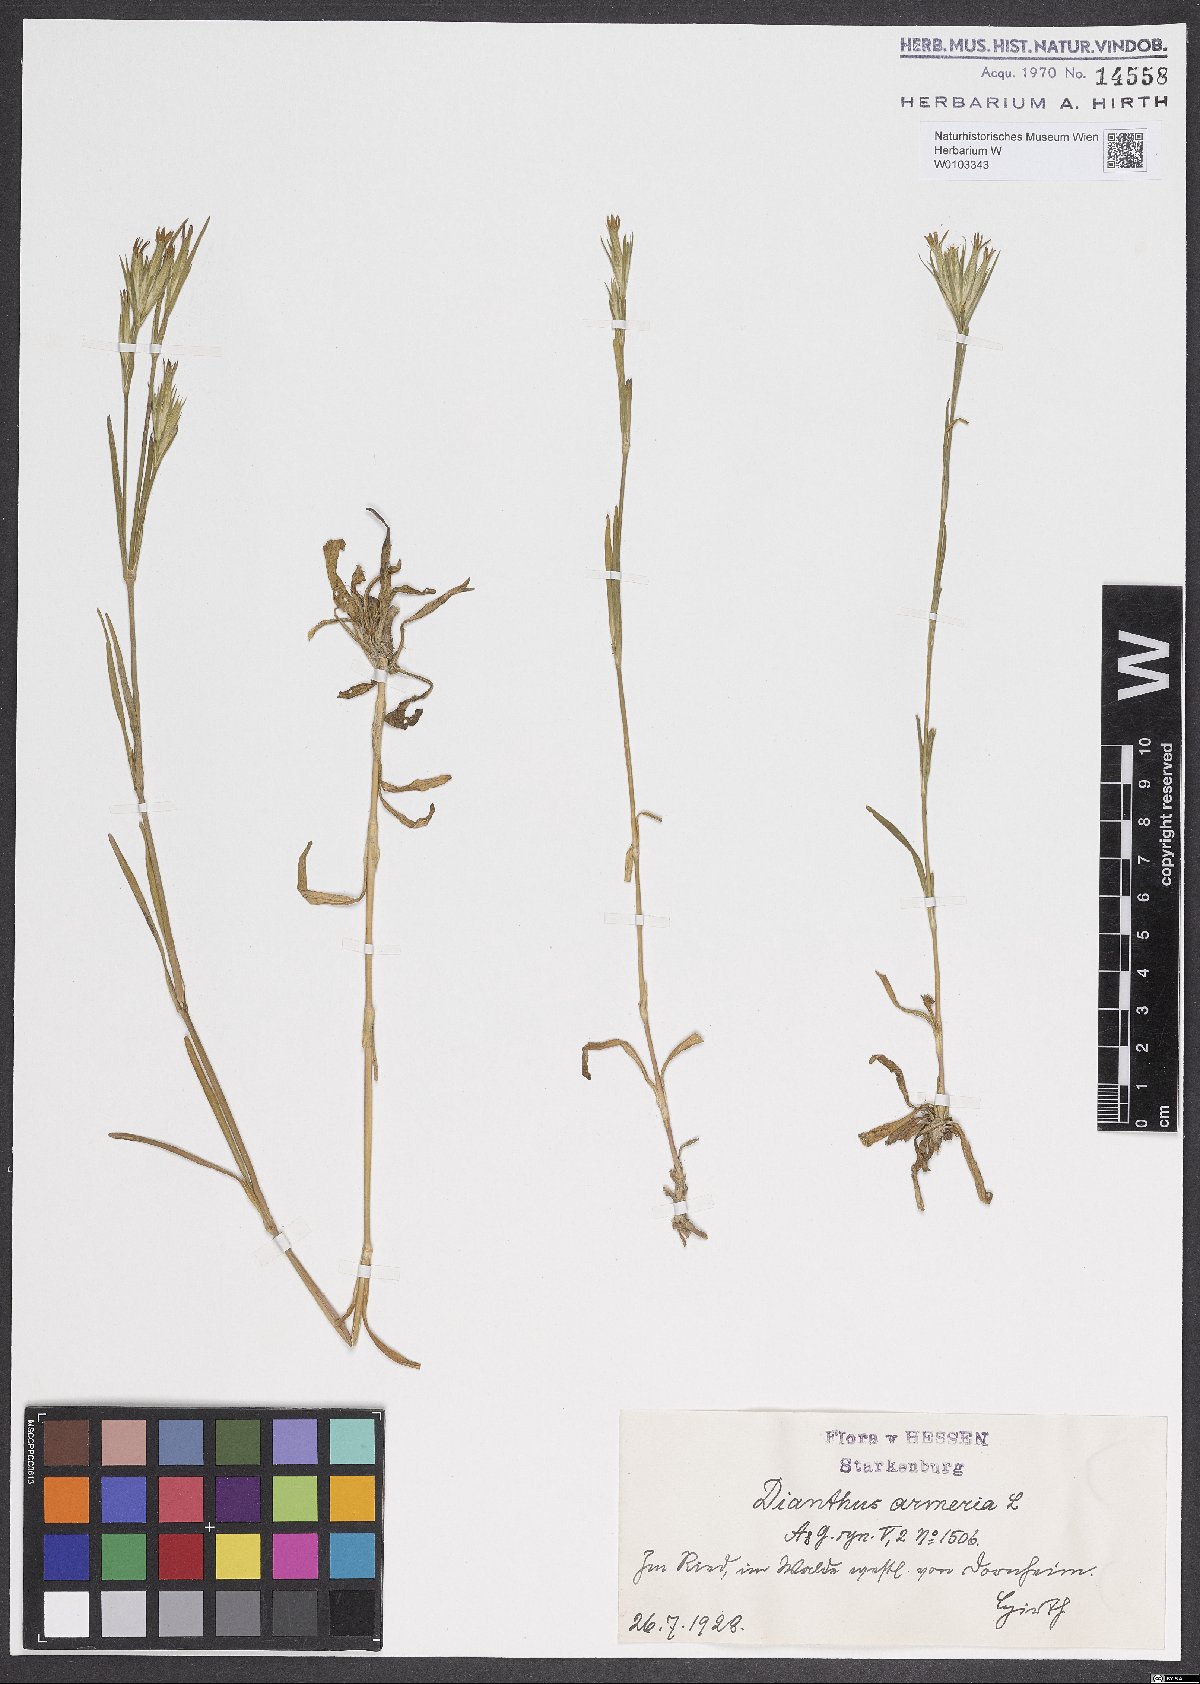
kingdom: Plantae
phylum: Tracheophyta
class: Magnoliopsida
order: Caryophyllales
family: Caryophyllaceae
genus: Dianthus
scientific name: Dianthus armeria
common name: Deptford pink
